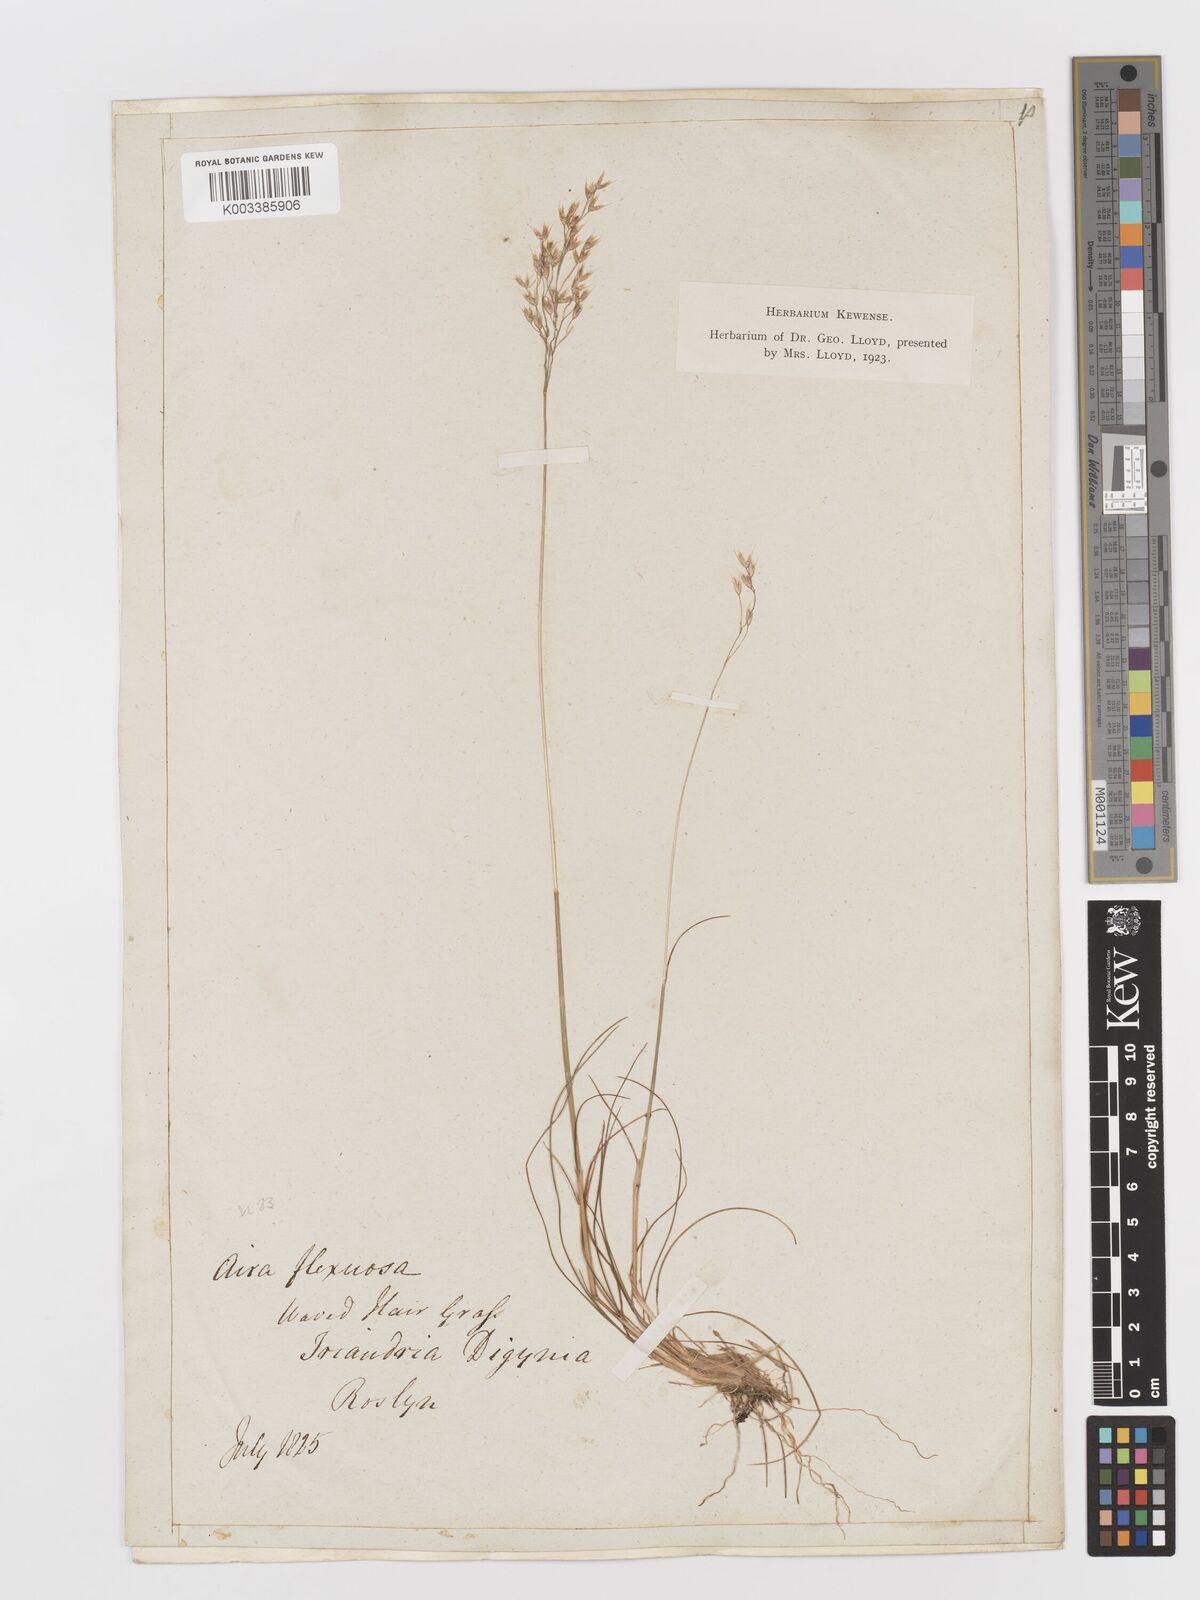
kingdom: Plantae
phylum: Tracheophyta
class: Liliopsida
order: Poales
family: Poaceae
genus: Avenella
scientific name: Avenella flexuosa
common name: Wavy hairgrass
